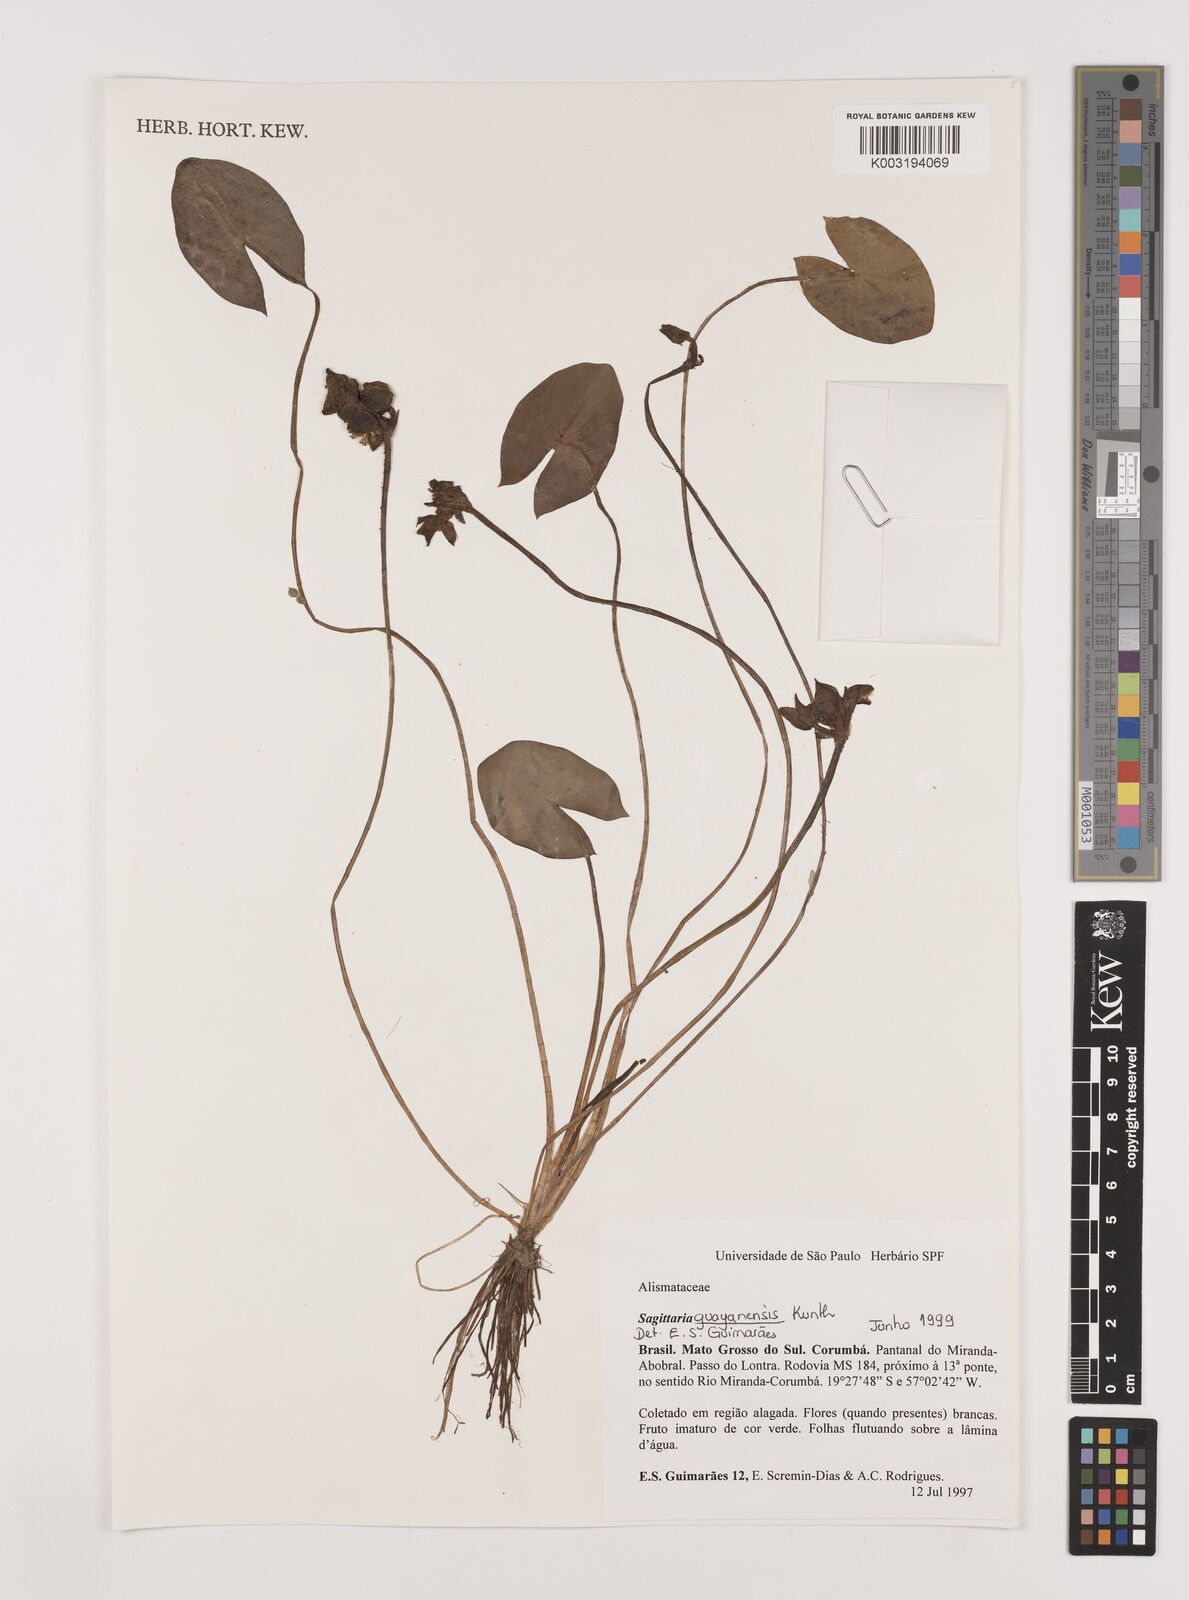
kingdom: Plantae
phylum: Tracheophyta
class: Liliopsida
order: Alismatales
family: Alismataceae
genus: Sagittaria
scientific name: Sagittaria guayanensis
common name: Guyanese arrowhead
